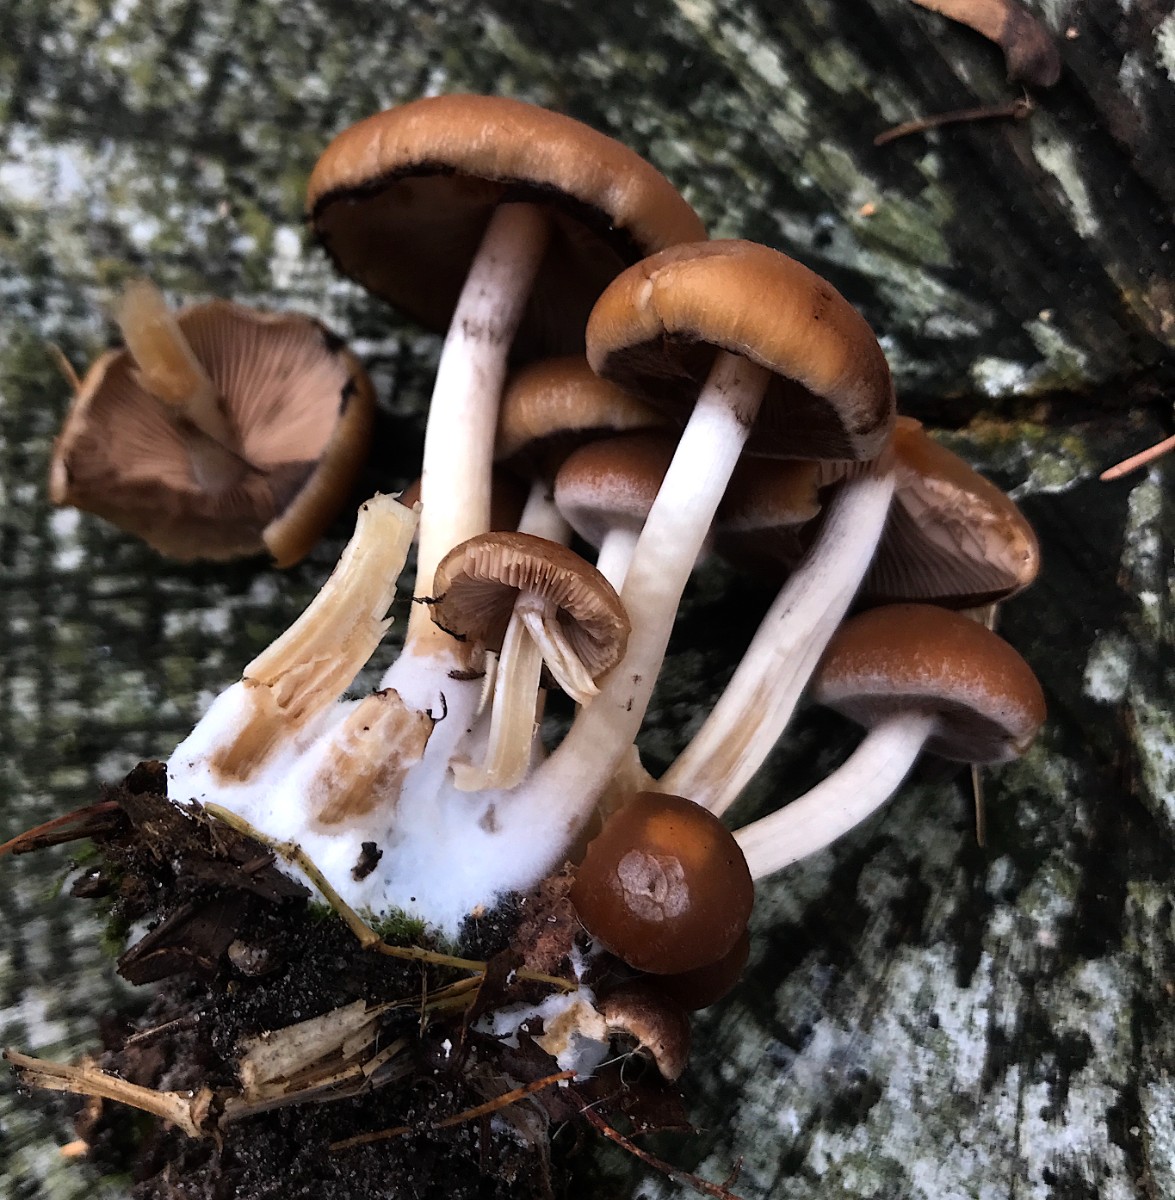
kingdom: Fungi
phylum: Basidiomycota
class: Agaricomycetes
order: Agaricales
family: Psathyrellaceae
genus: Psathyrella
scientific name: Psathyrella piluliformis
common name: lysstokket mørkhat
